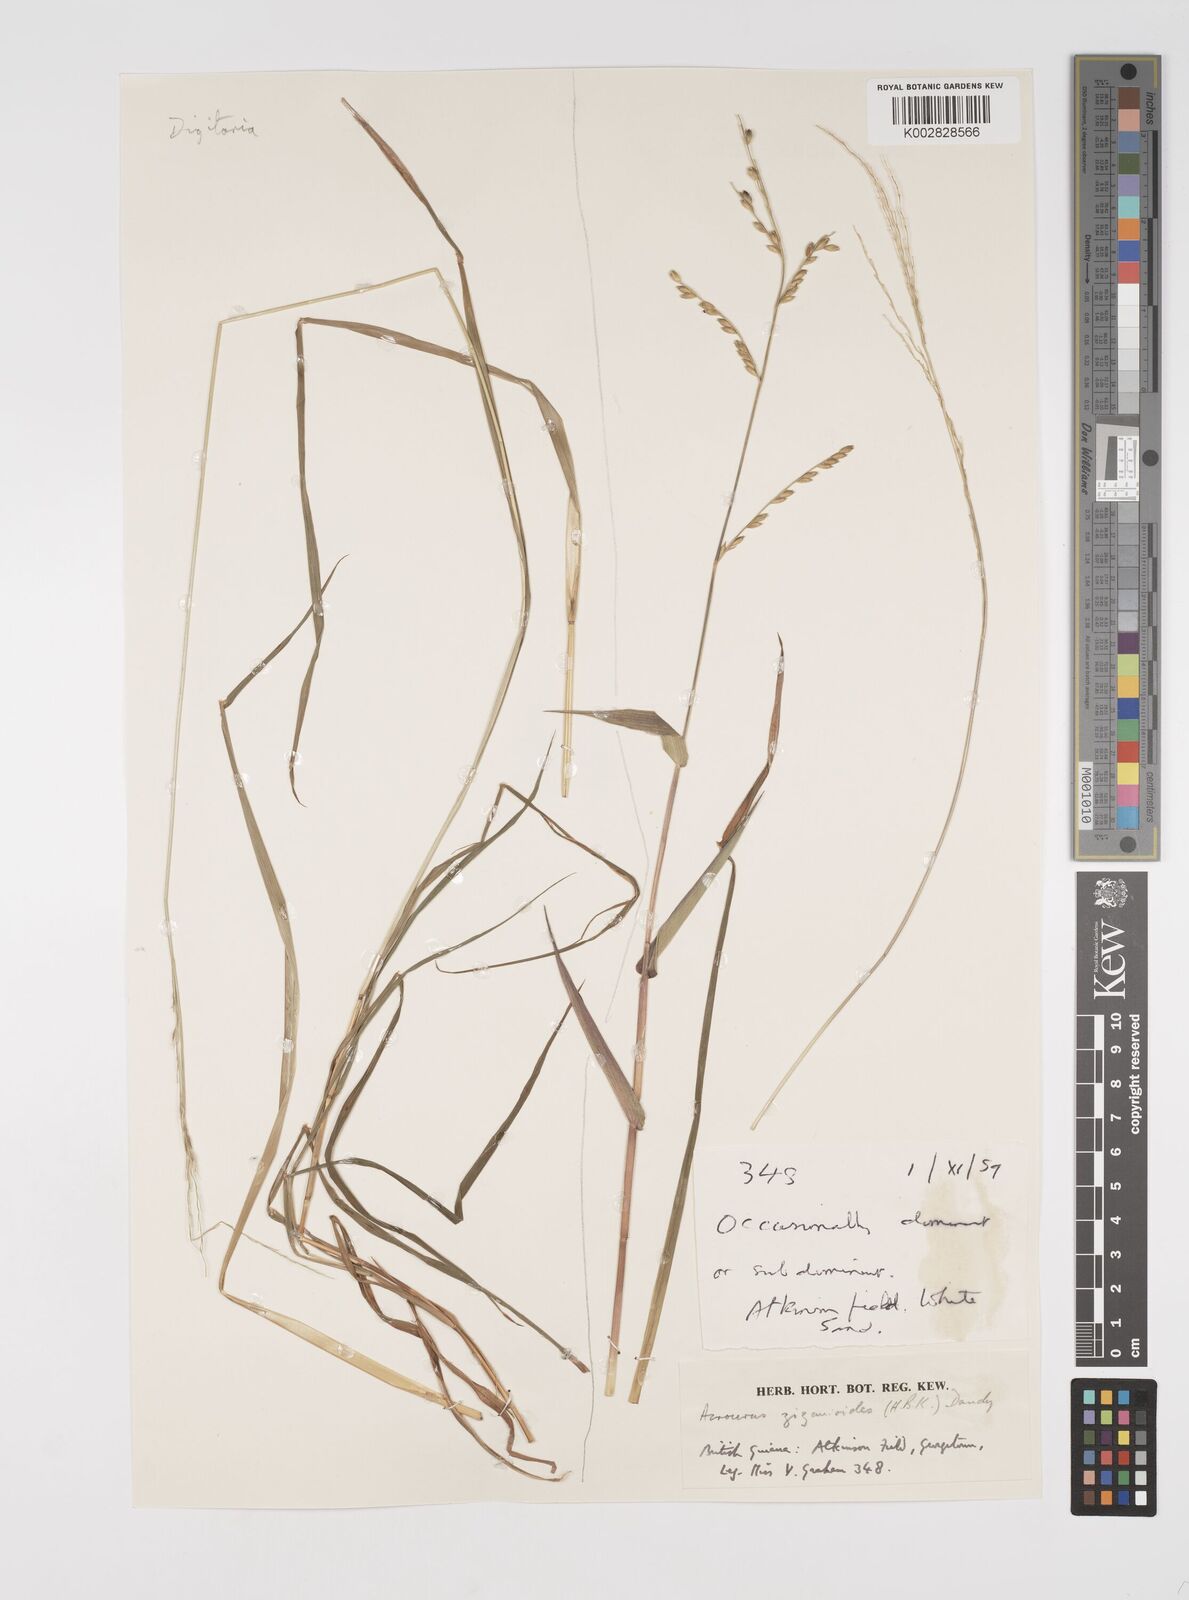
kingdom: Plantae
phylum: Tracheophyta
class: Liliopsida
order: Poales
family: Poaceae
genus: Acroceras
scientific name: Acroceras zizanioides
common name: Oat grass
